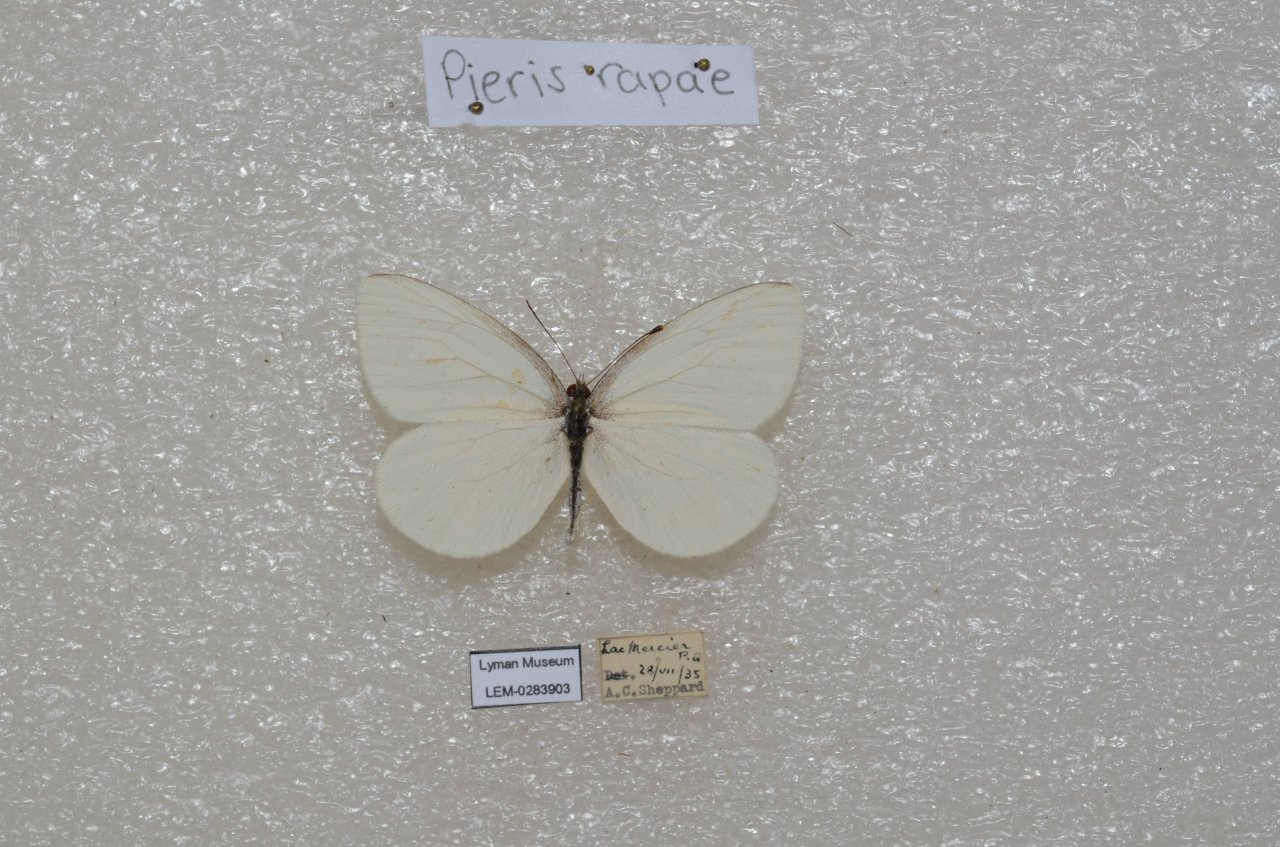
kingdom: Animalia
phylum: Arthropoda
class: Insecta
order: Lepidoptera
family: Pieridae
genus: Pieris
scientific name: Pieris oleracea
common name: Mustard White
